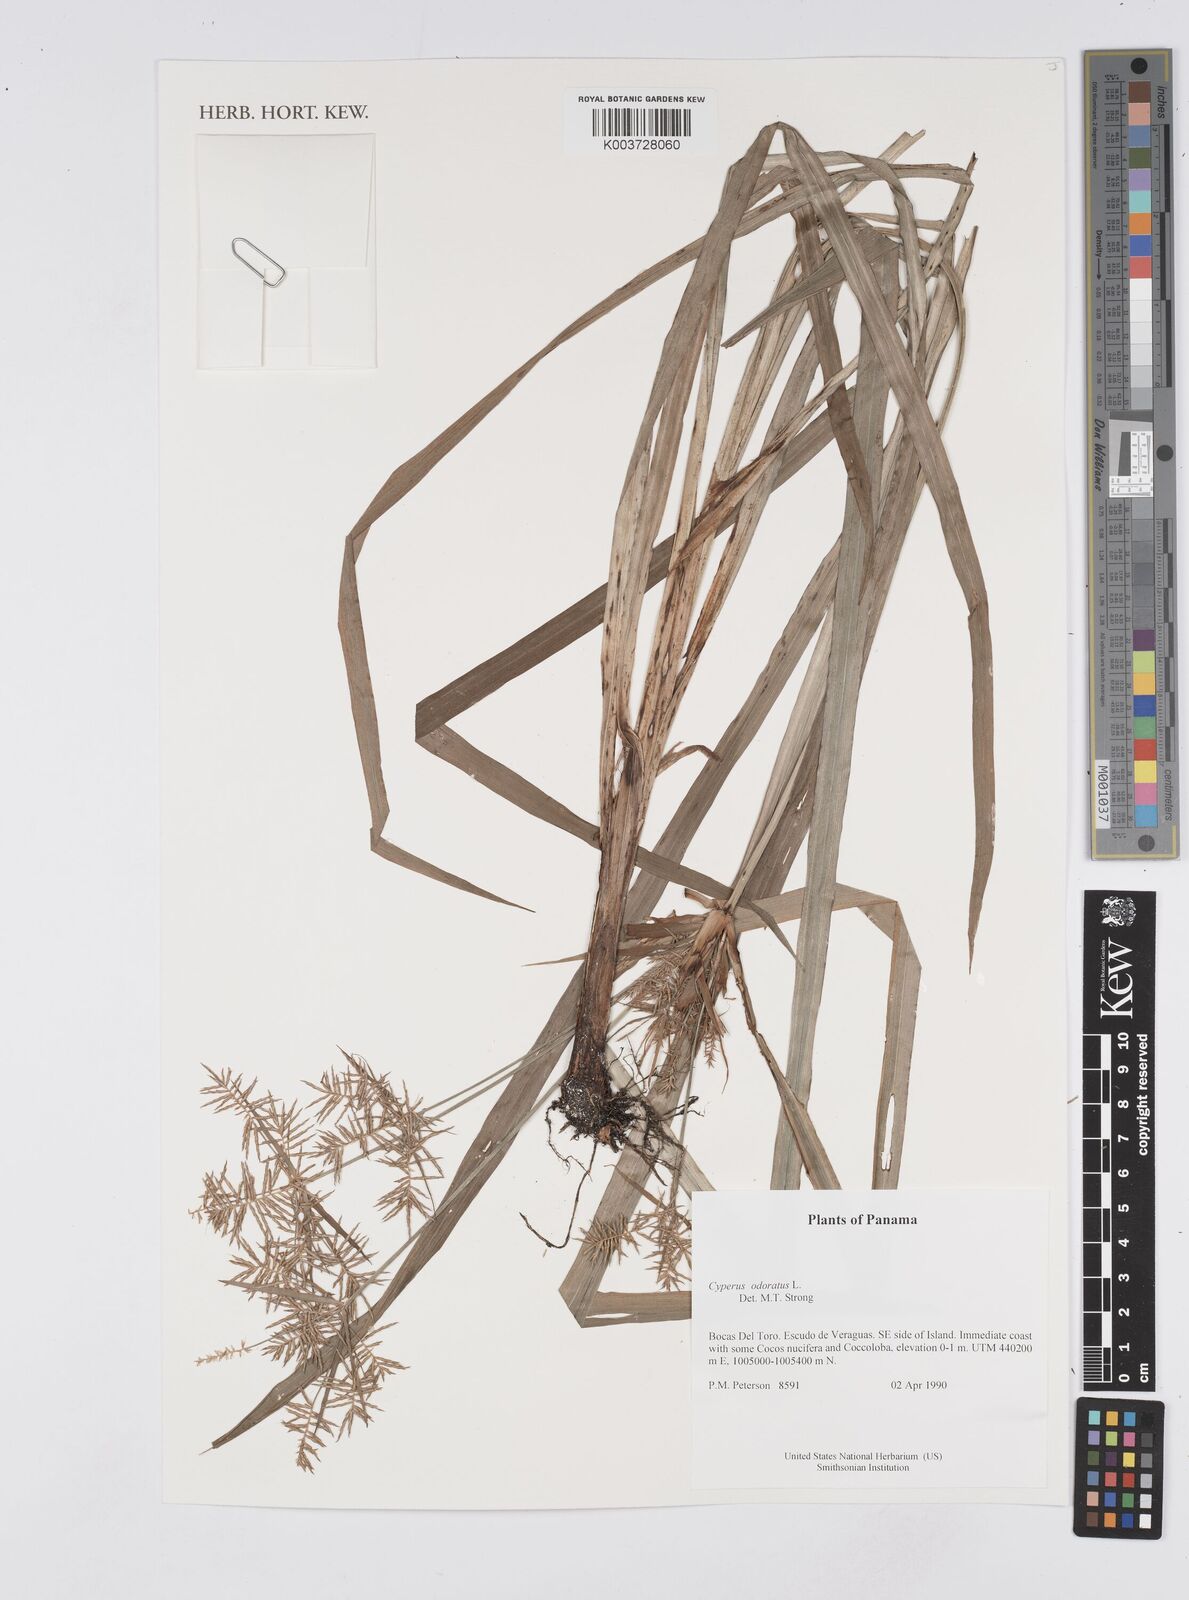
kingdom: Plantae
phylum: Tracheophyta
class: Liliopsida
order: Poales
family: Cyperaceae
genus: Cyperus
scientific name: Cyperus odoratus
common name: Fragrant flatsedge
